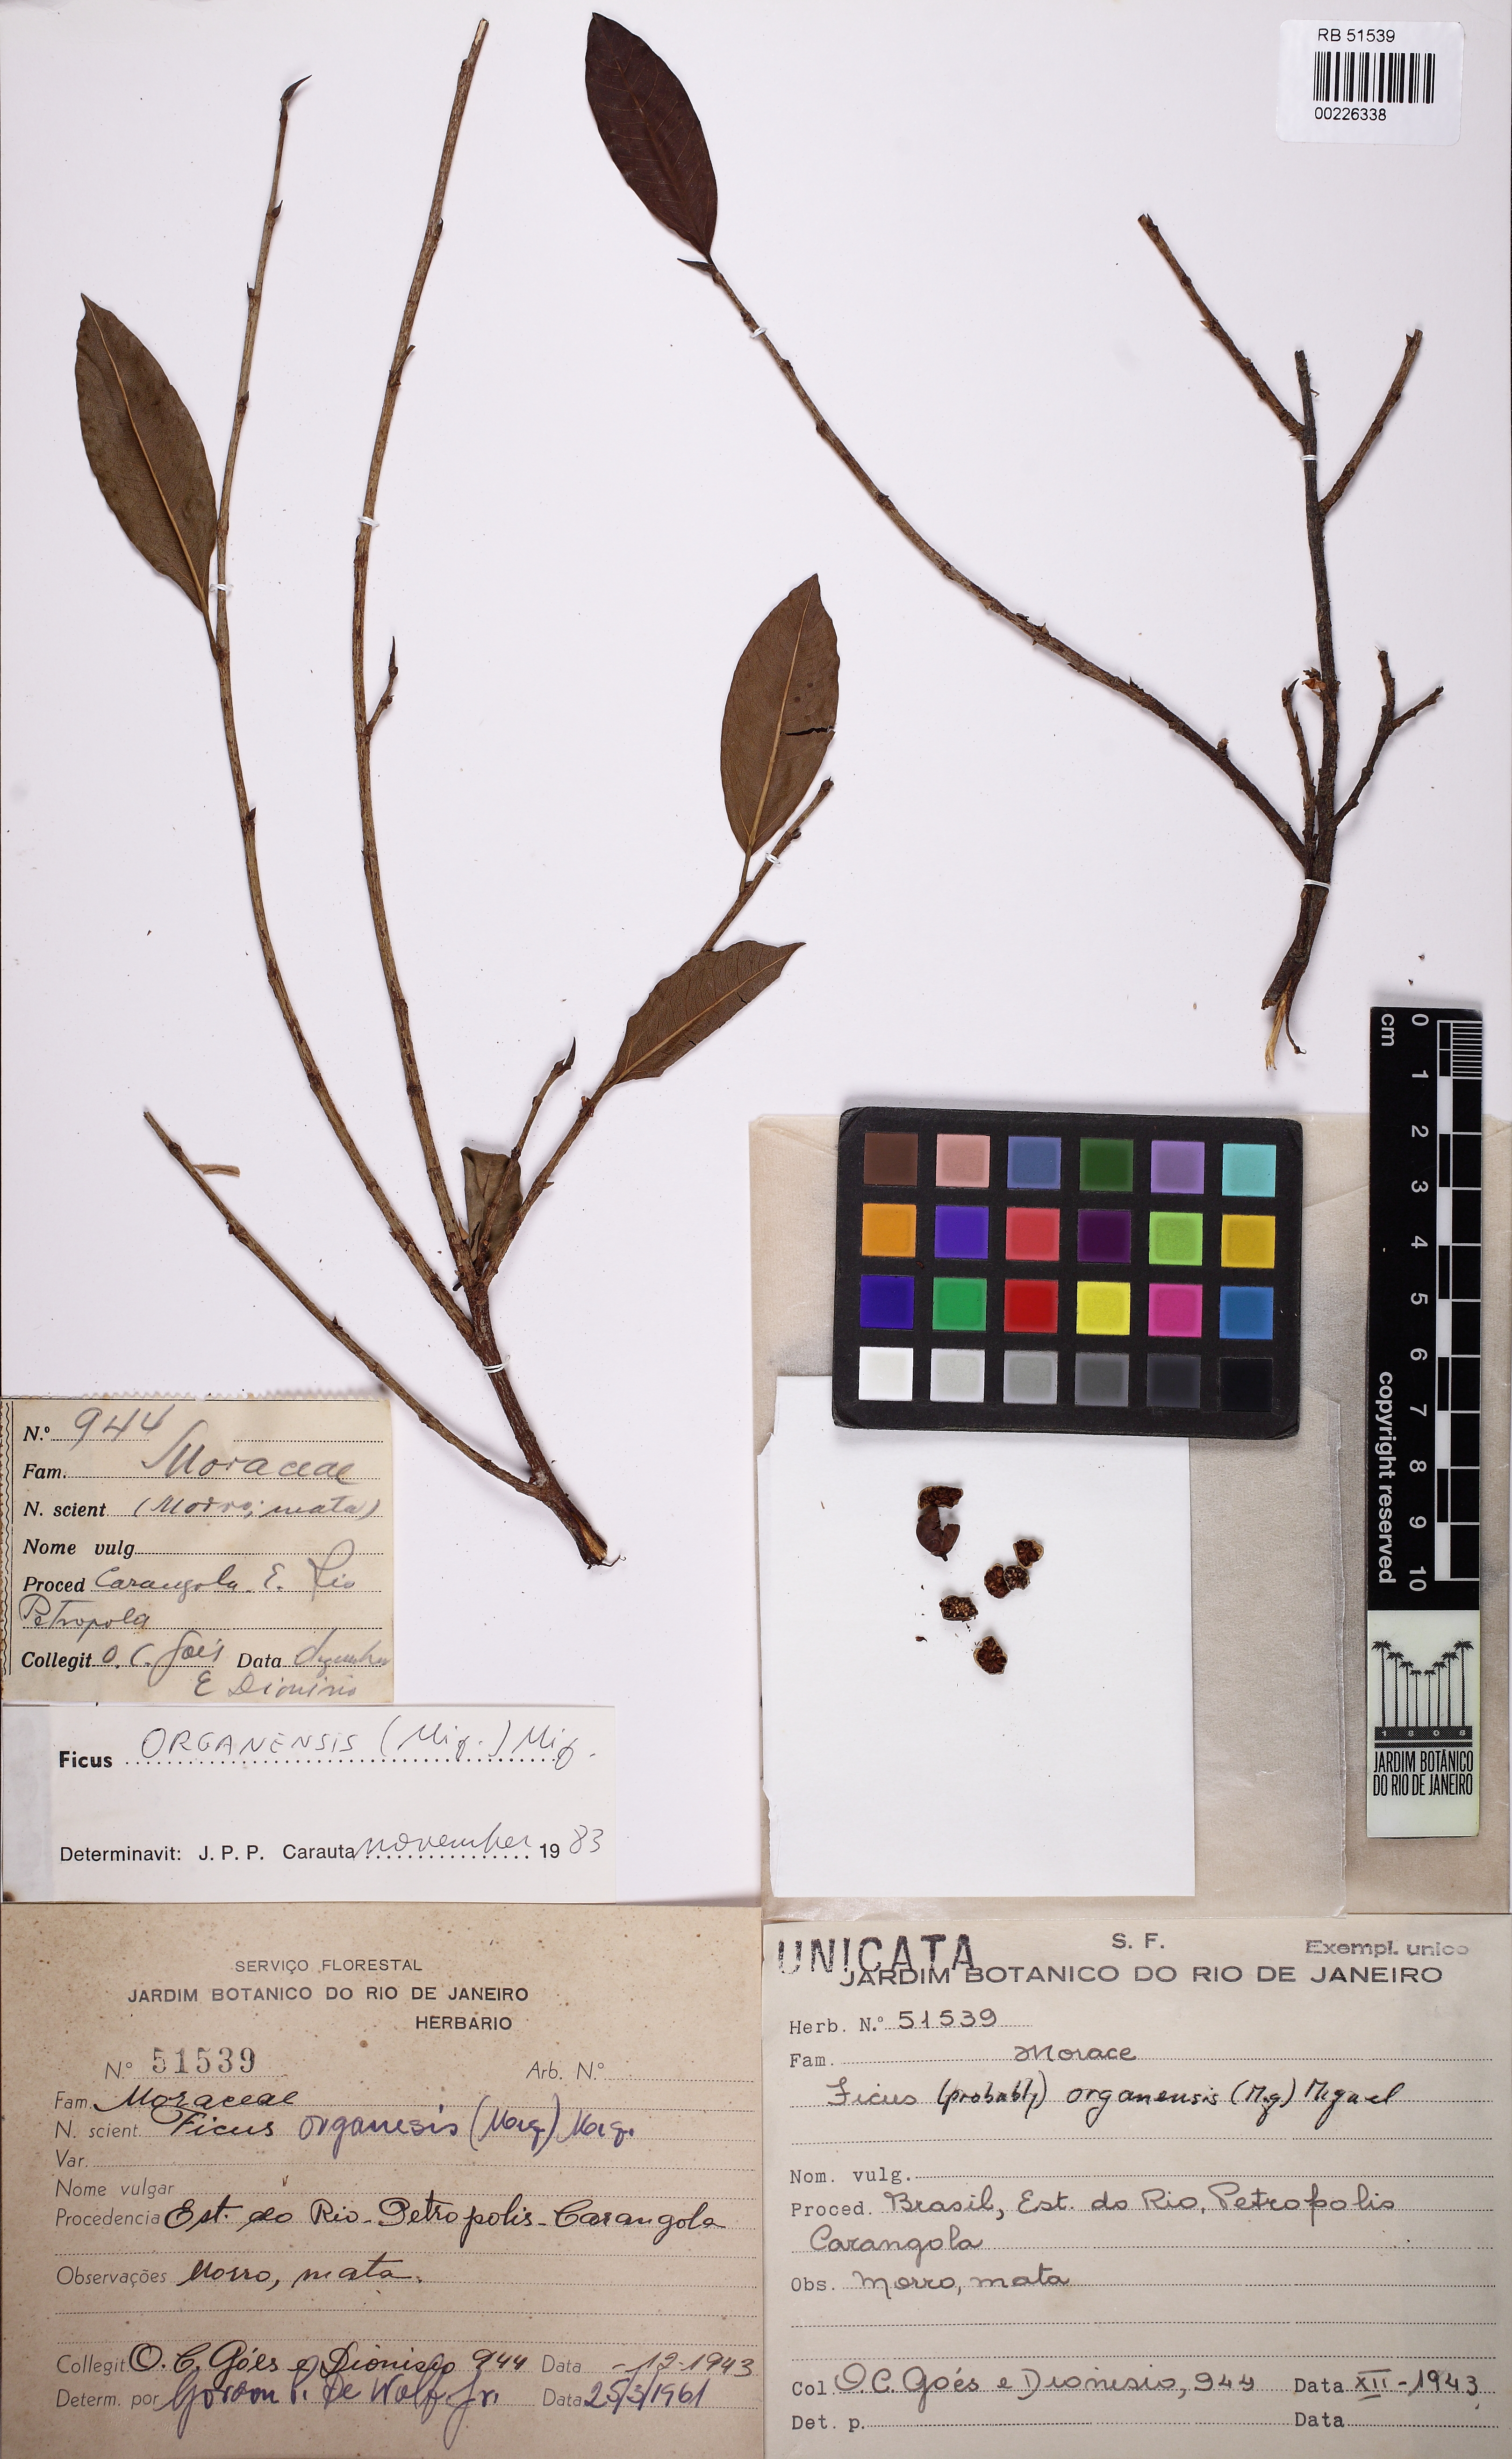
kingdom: Plantae
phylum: Tracheophyta
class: Magnoliopsida
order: Rosales
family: Moraceae
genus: Ficus
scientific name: Ficus organensis
